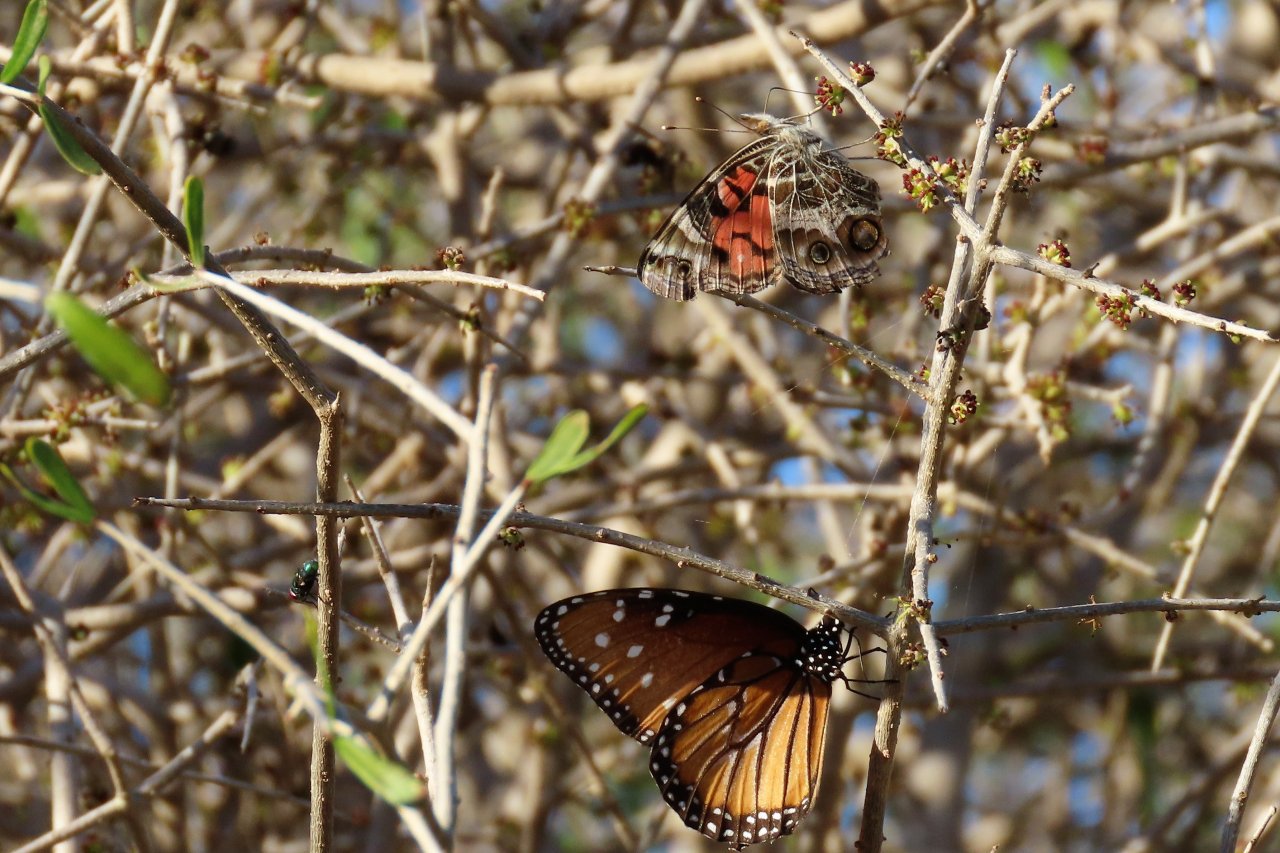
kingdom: Animalia
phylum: Arthropoda
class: Insecta
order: Lepidoptera
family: Nymphalidae
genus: Danaus
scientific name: Danaus gilippus
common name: Queen
